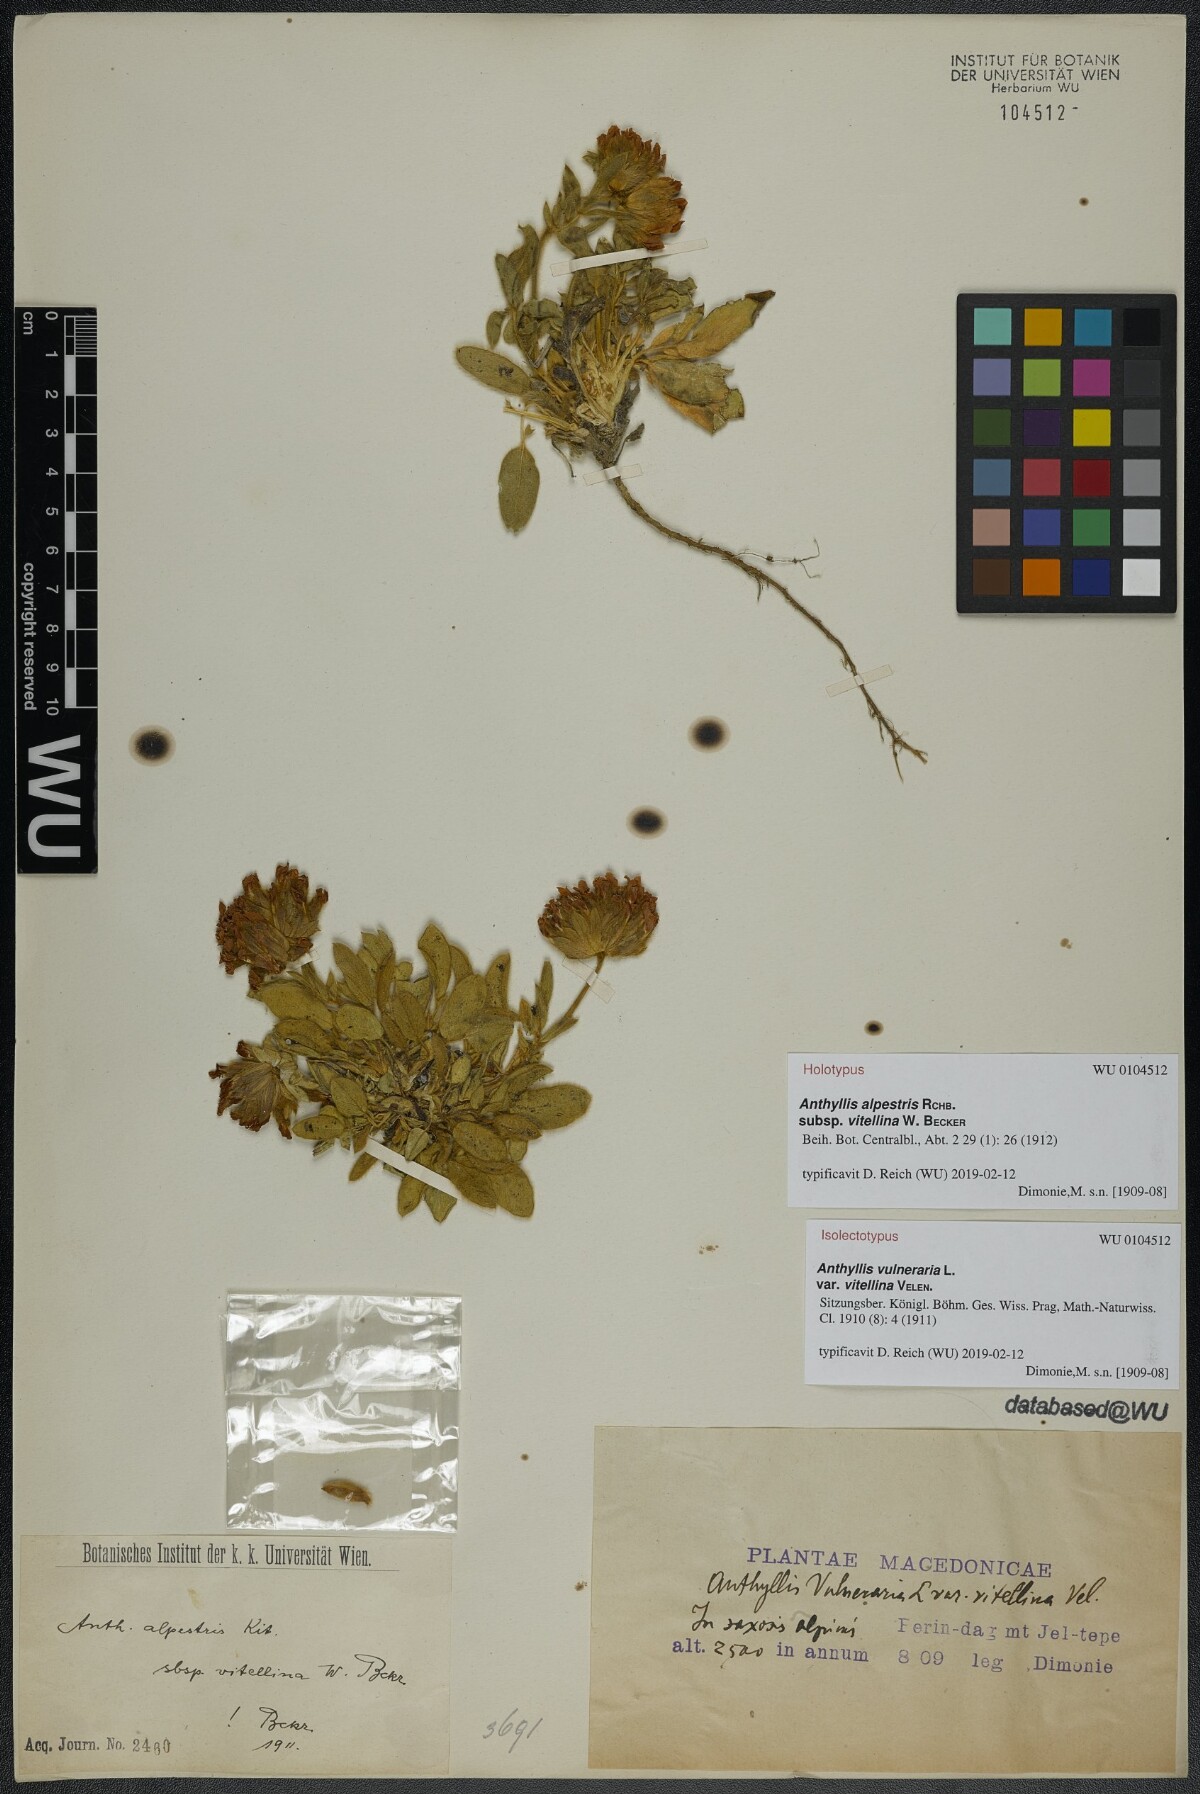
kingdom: Plantae
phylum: Tracheophyta
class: Magnoliopsida
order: Fabales
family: Fabaceae
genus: Anthyllis
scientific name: Anthyllis vulneraria
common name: Kidney vetch
